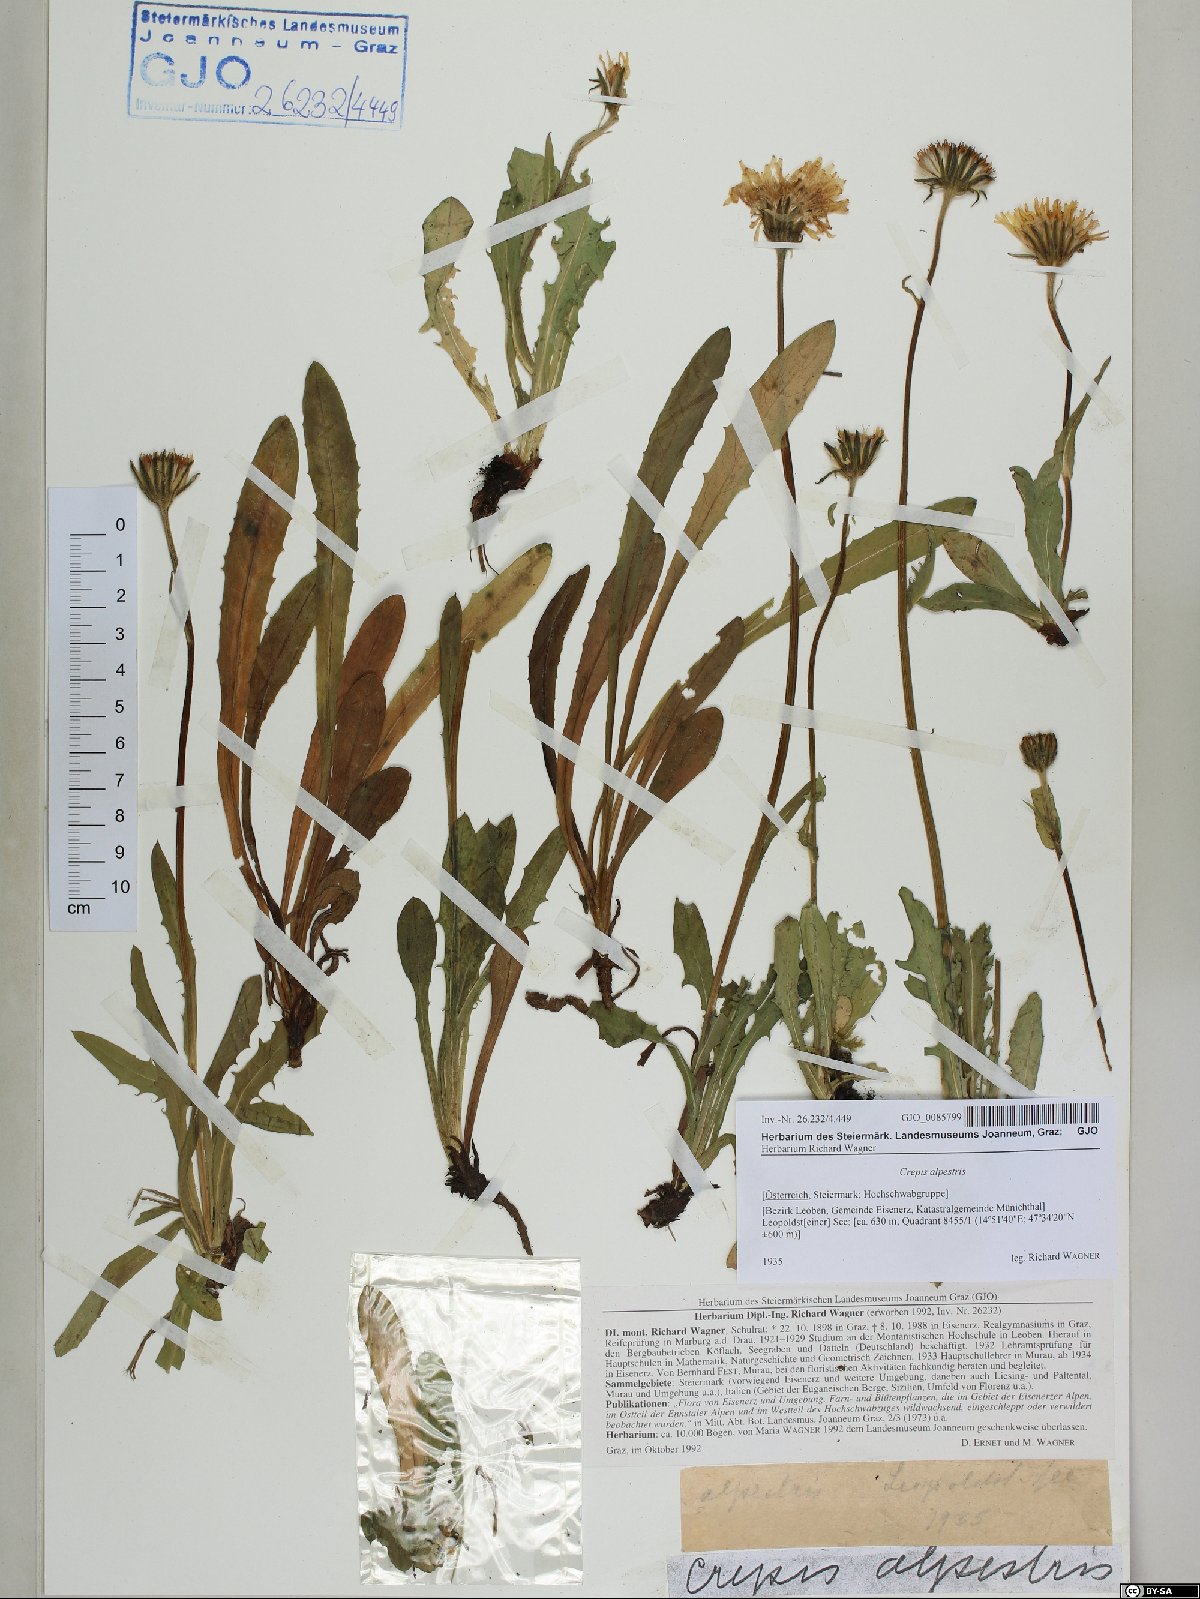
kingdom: Plantae
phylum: Tracheophyta
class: Magnoliopsida
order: Asterales
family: Asteraceae
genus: Crepis
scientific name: Crepis alpestris
